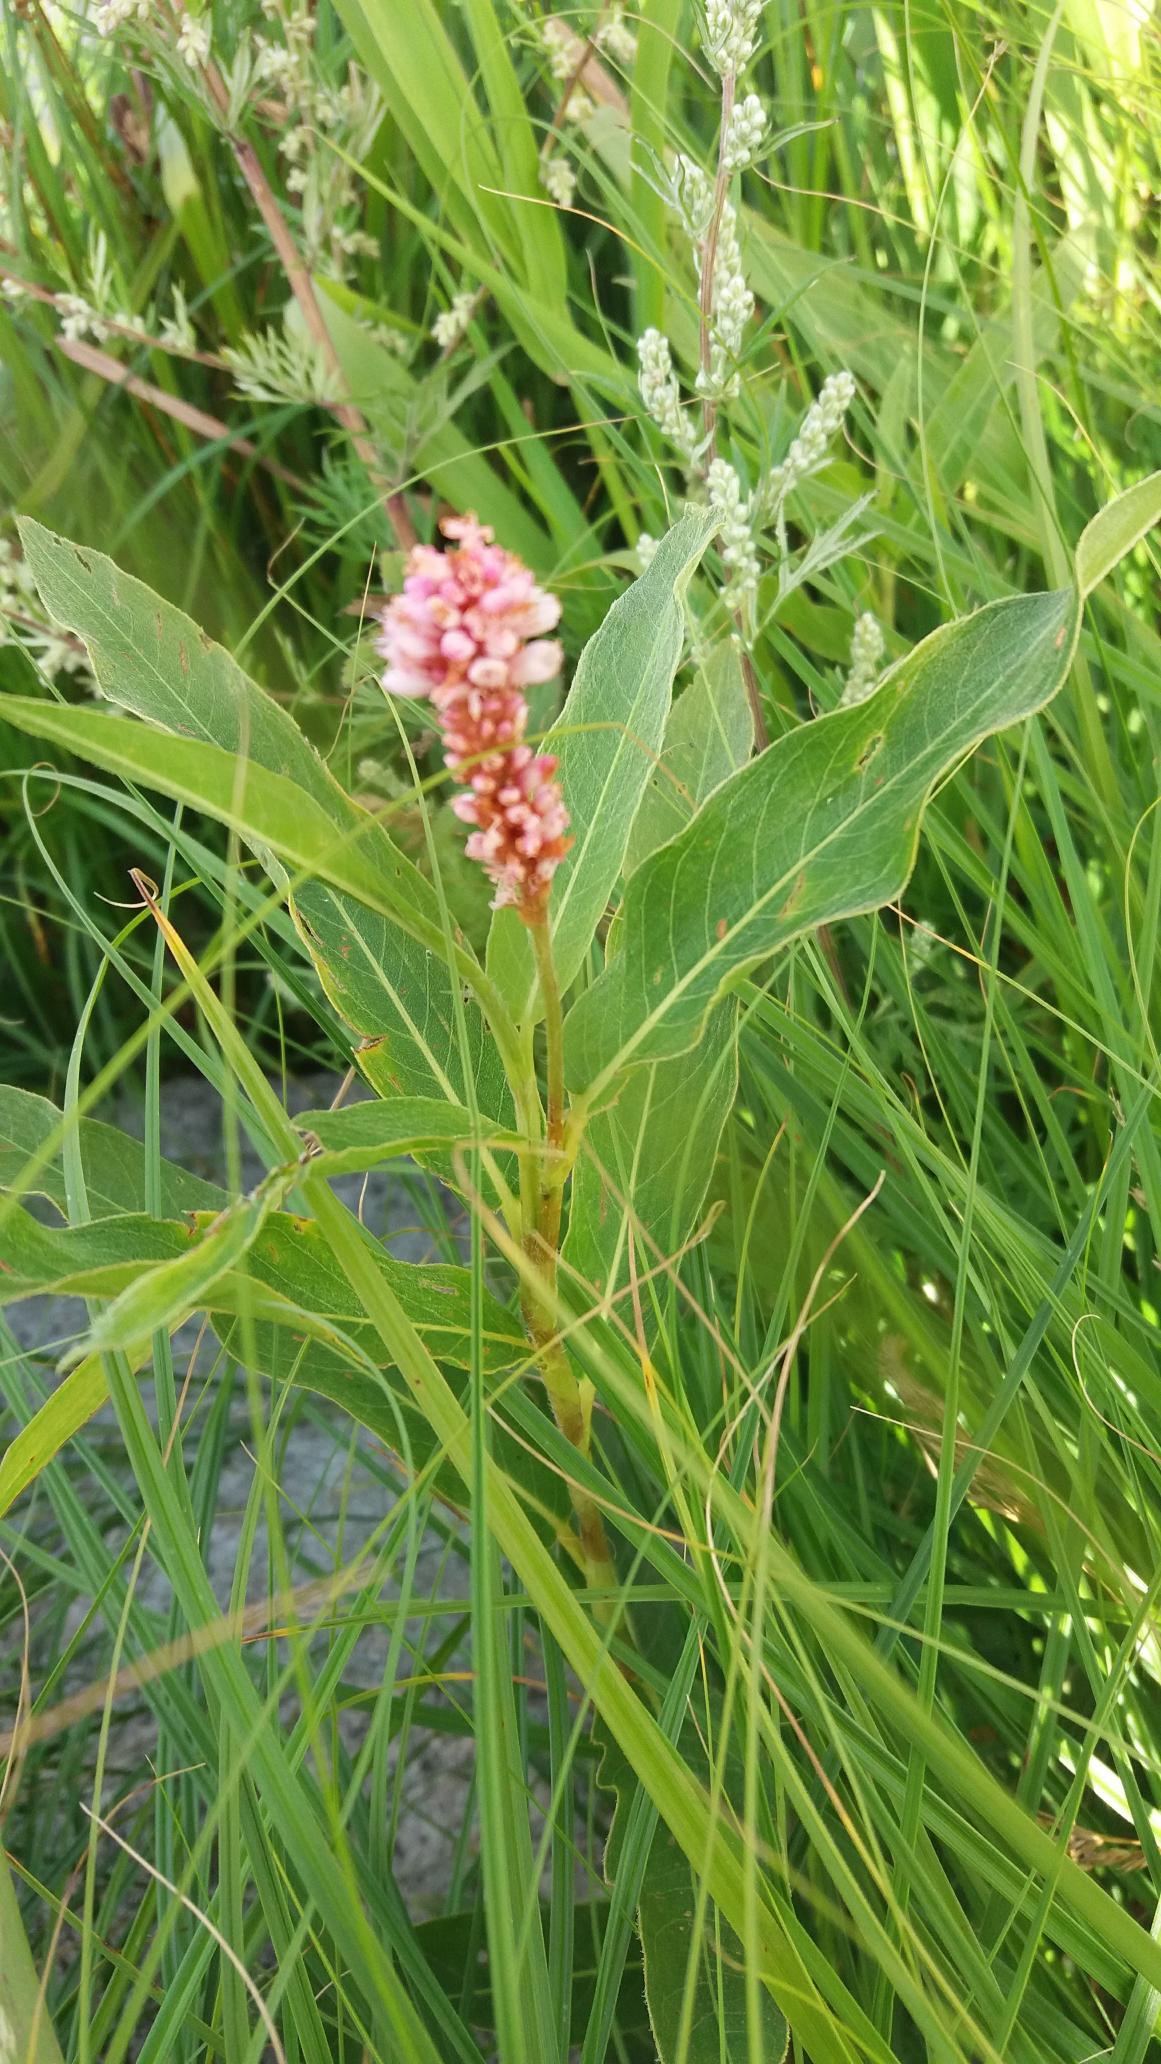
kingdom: Plantae
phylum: Tracheophyta
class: Magnoliopsida
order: Caryophyllales
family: Polygonaceae
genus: Persicaria
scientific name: Persicaria amphibia
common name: Vand-pileurt
